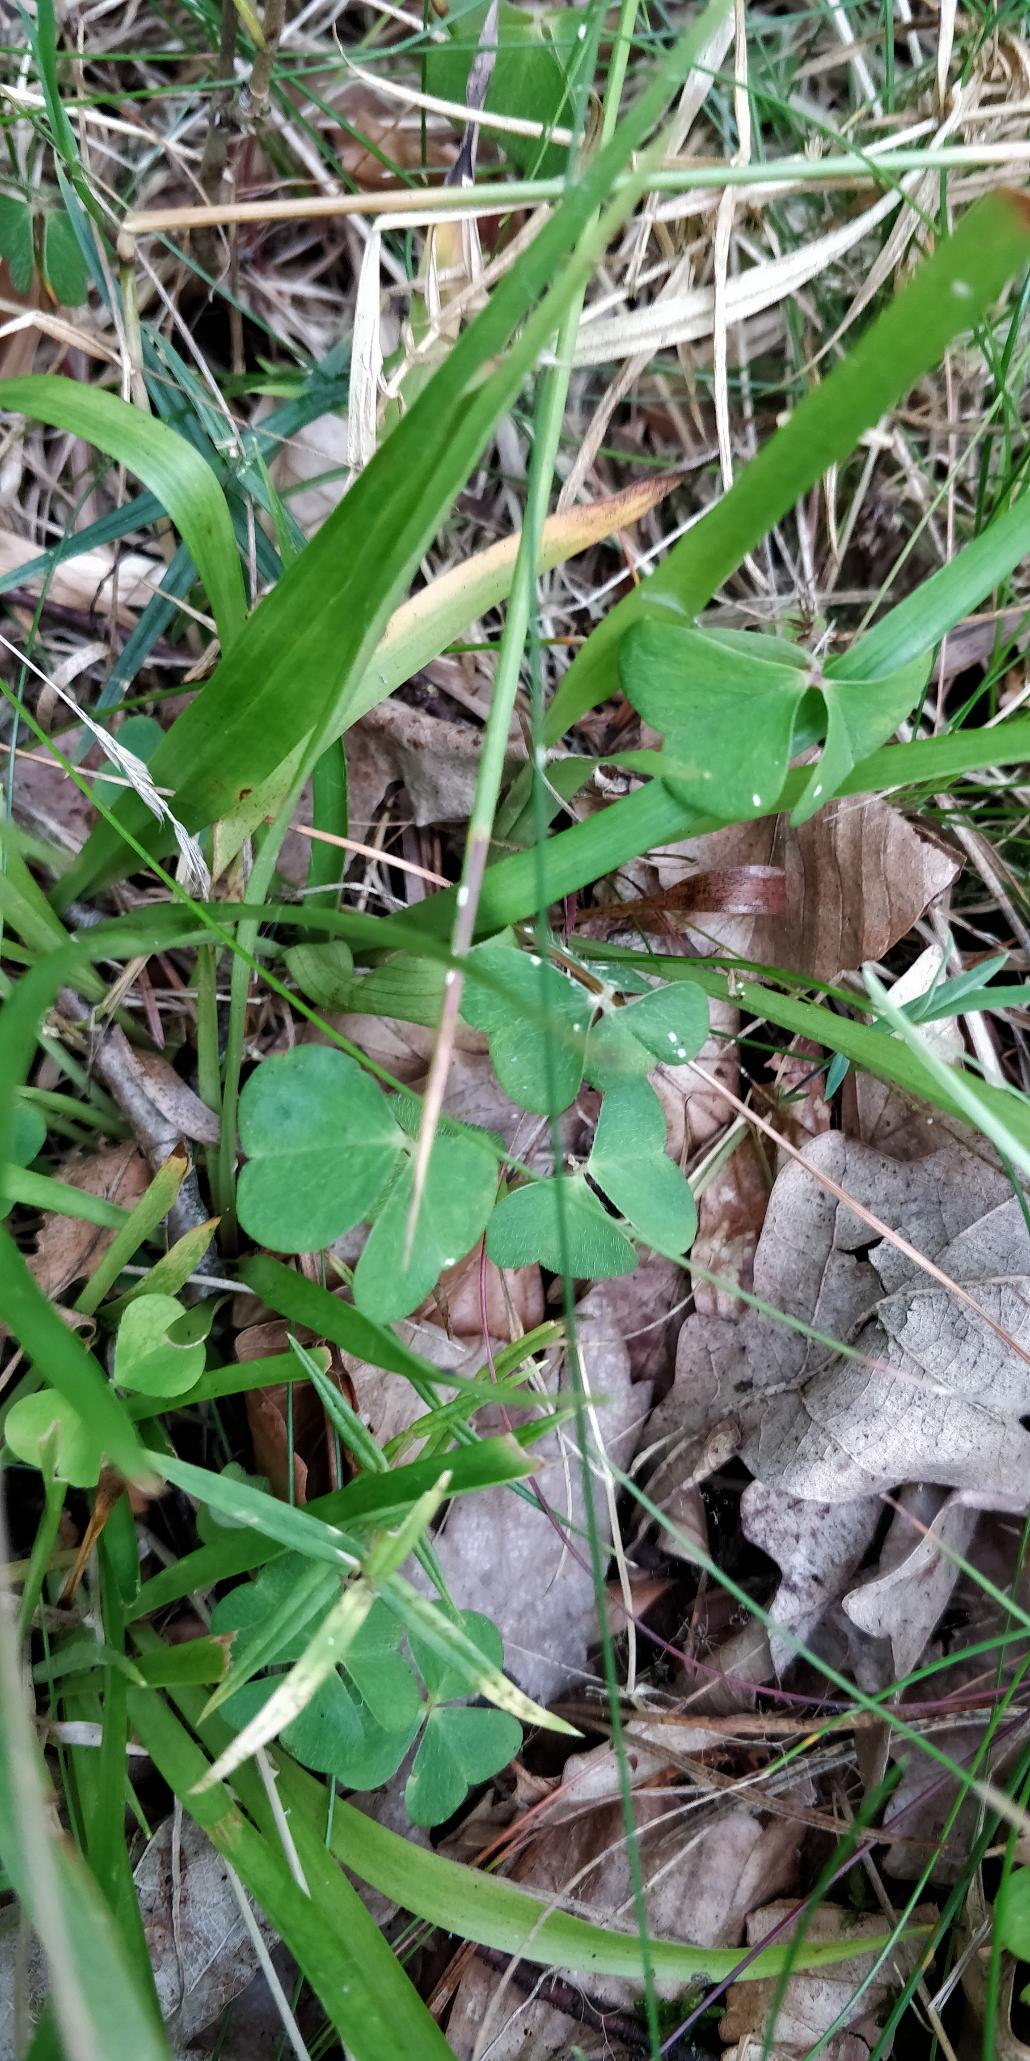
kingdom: Plantae
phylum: Tracheophyta
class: Magnoliopsida
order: Oxalidales
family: Oxalidaceae
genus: Oxalis
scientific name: Oxalis acetosella
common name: Skovsyre
